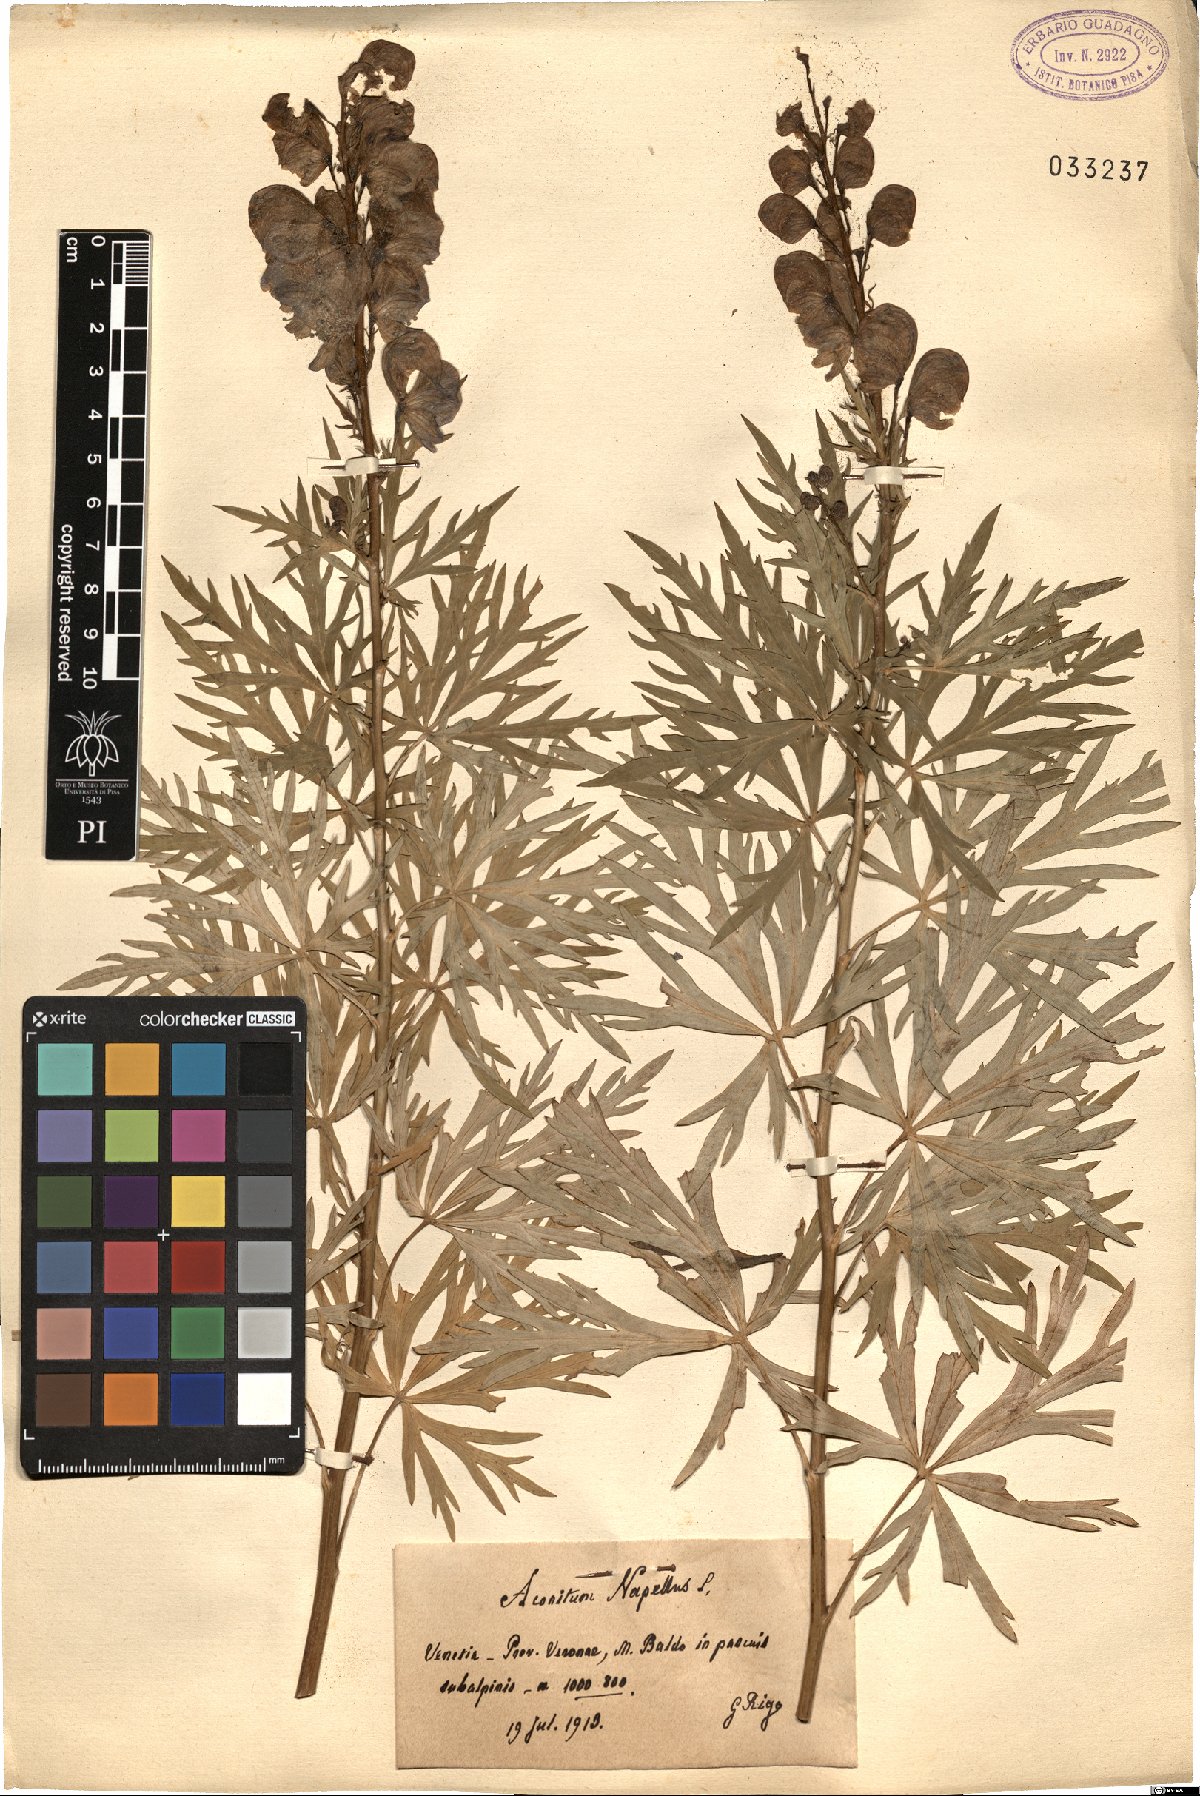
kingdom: Plantae
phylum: Tracheophyta
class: Magnoliopsida
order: Ranunculales
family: Ranunculaceae
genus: Aconitum
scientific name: Aconitum napellus
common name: Garden monkshood
